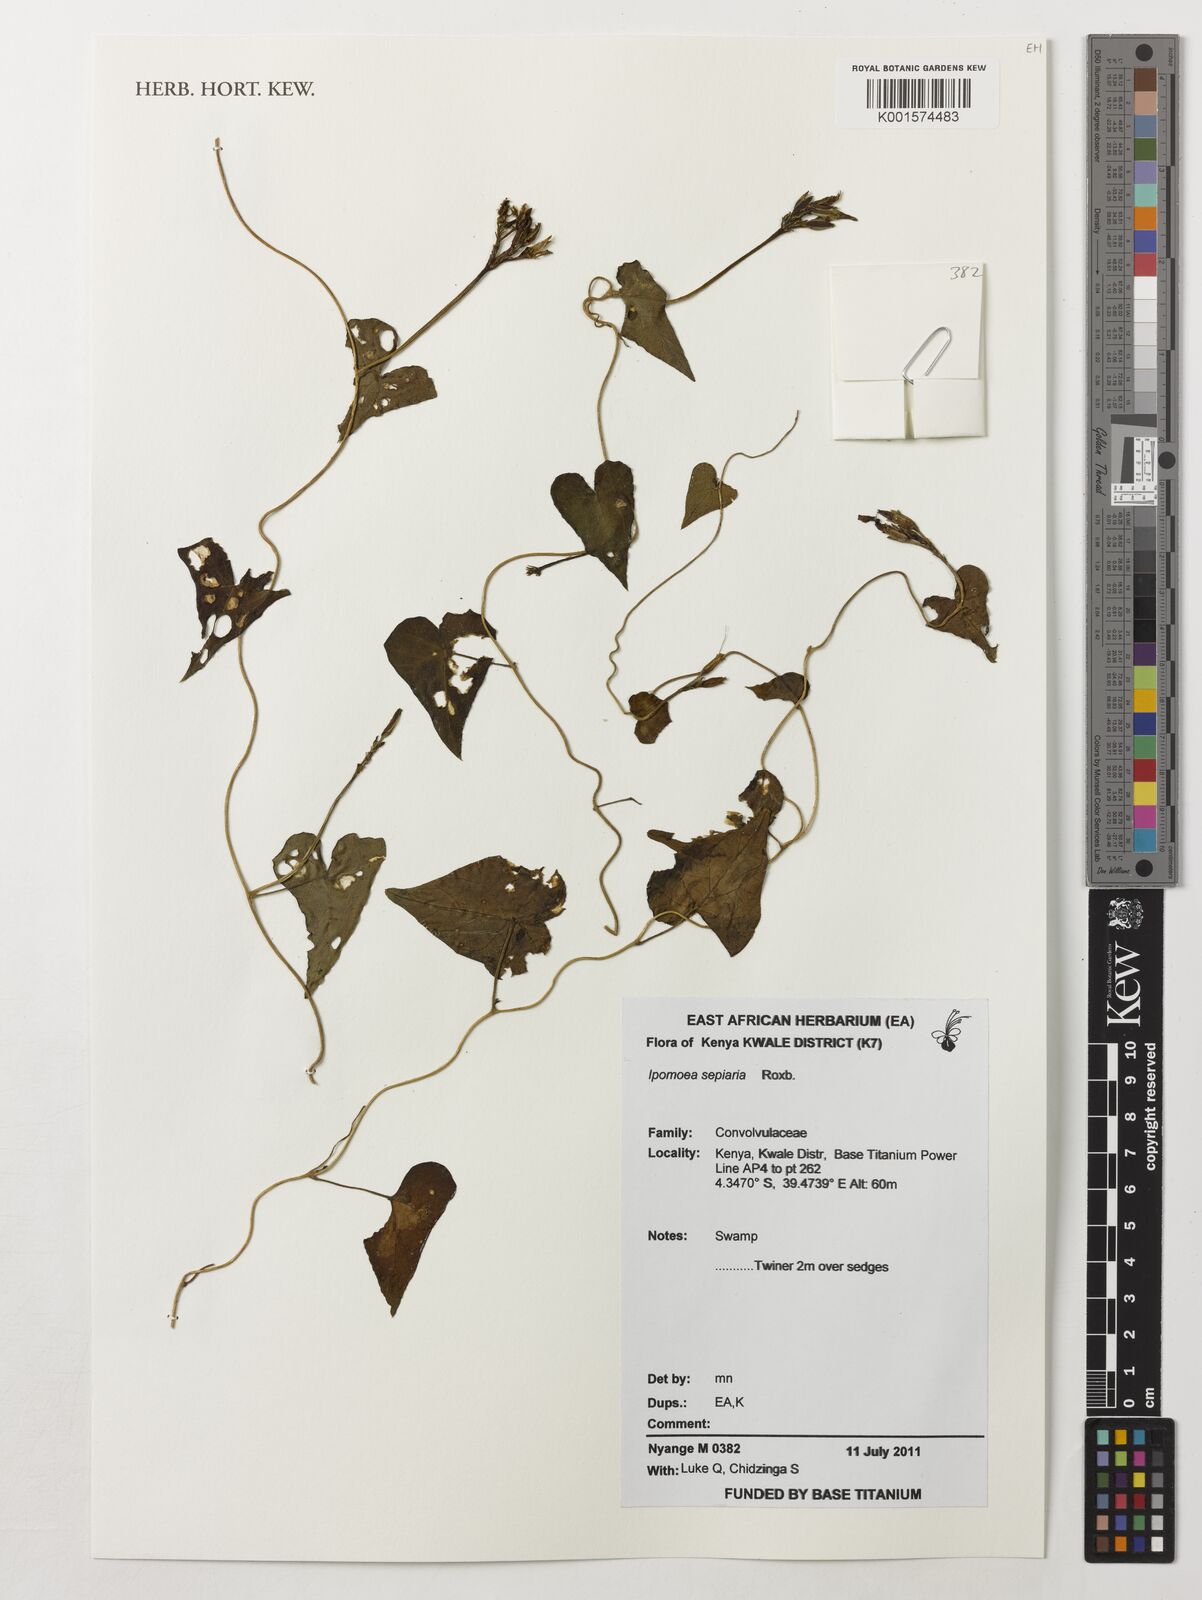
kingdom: Plantae
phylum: Tracheophyta
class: Magnoliopsida
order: Solanales
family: Convolvulaceae
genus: Ipomoea
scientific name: Ipomoea sagittifolia
